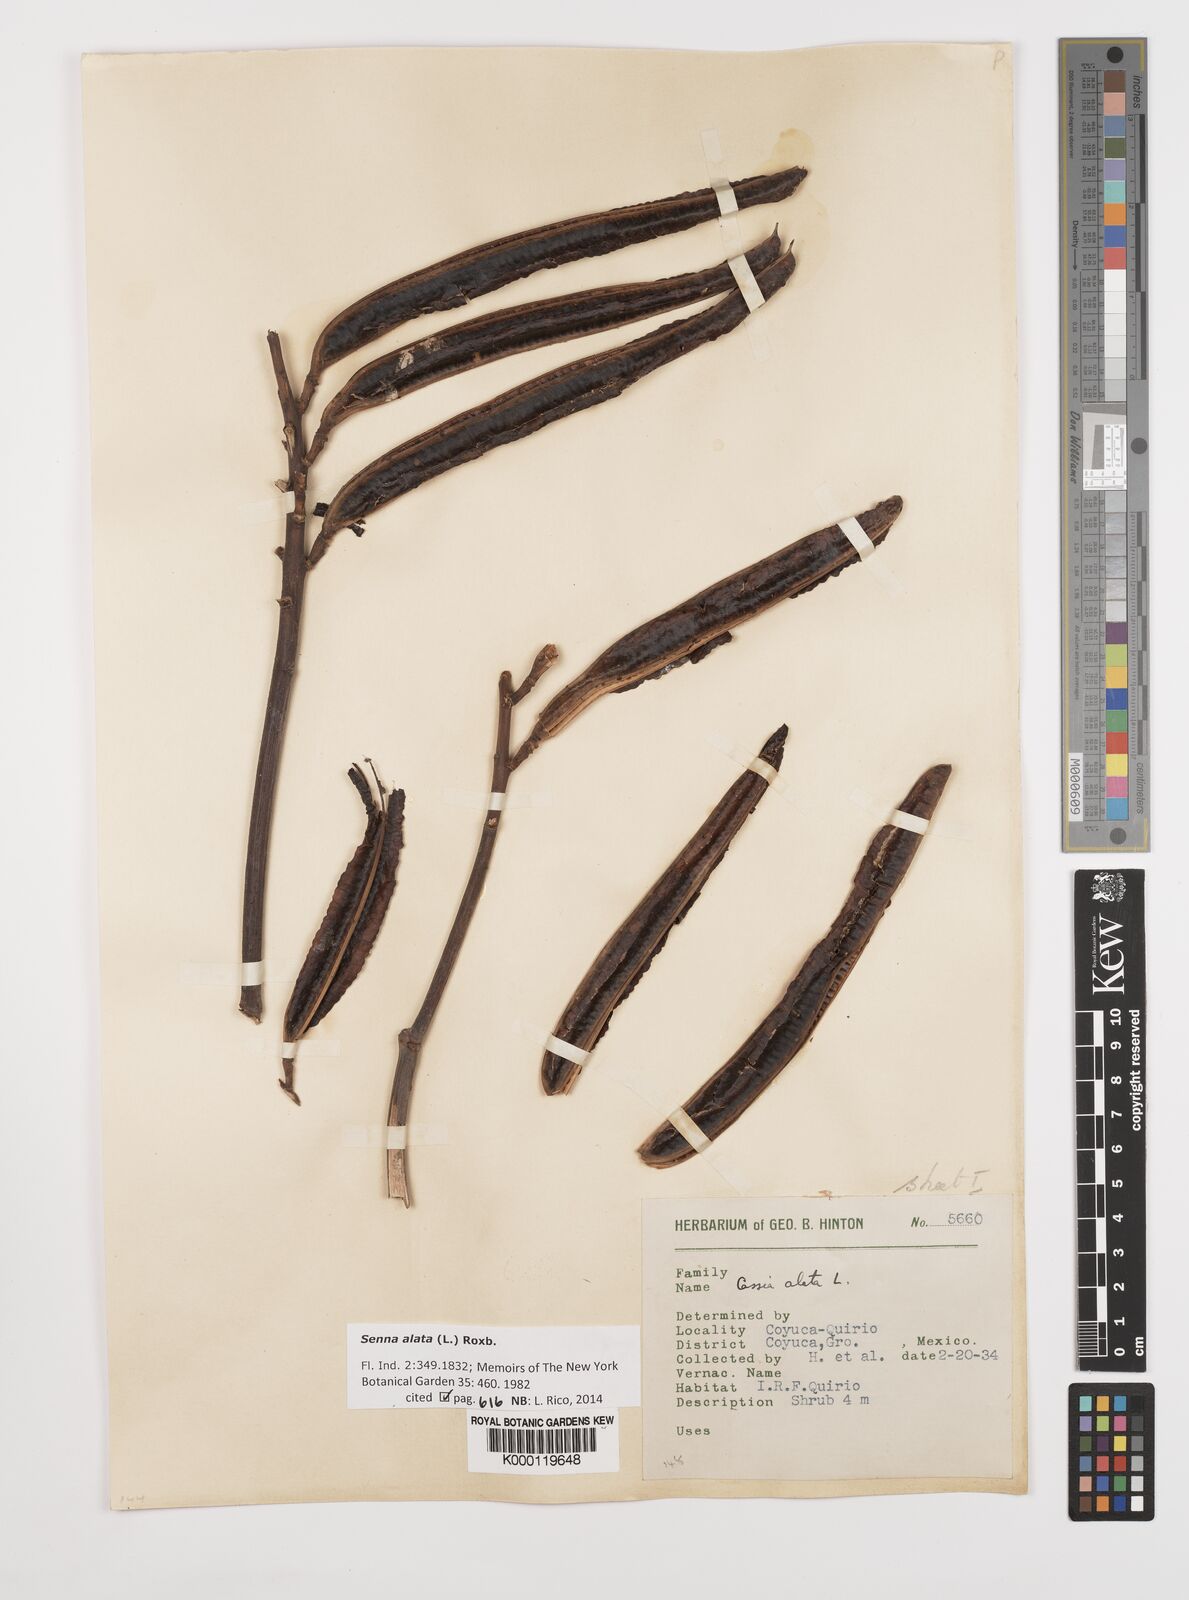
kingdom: Plantae
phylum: Tracheophyta
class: Magnoliopsida
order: Fabales
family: Fabaceae
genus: Senna
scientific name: Senna alata
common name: Emperor's candlesticks
